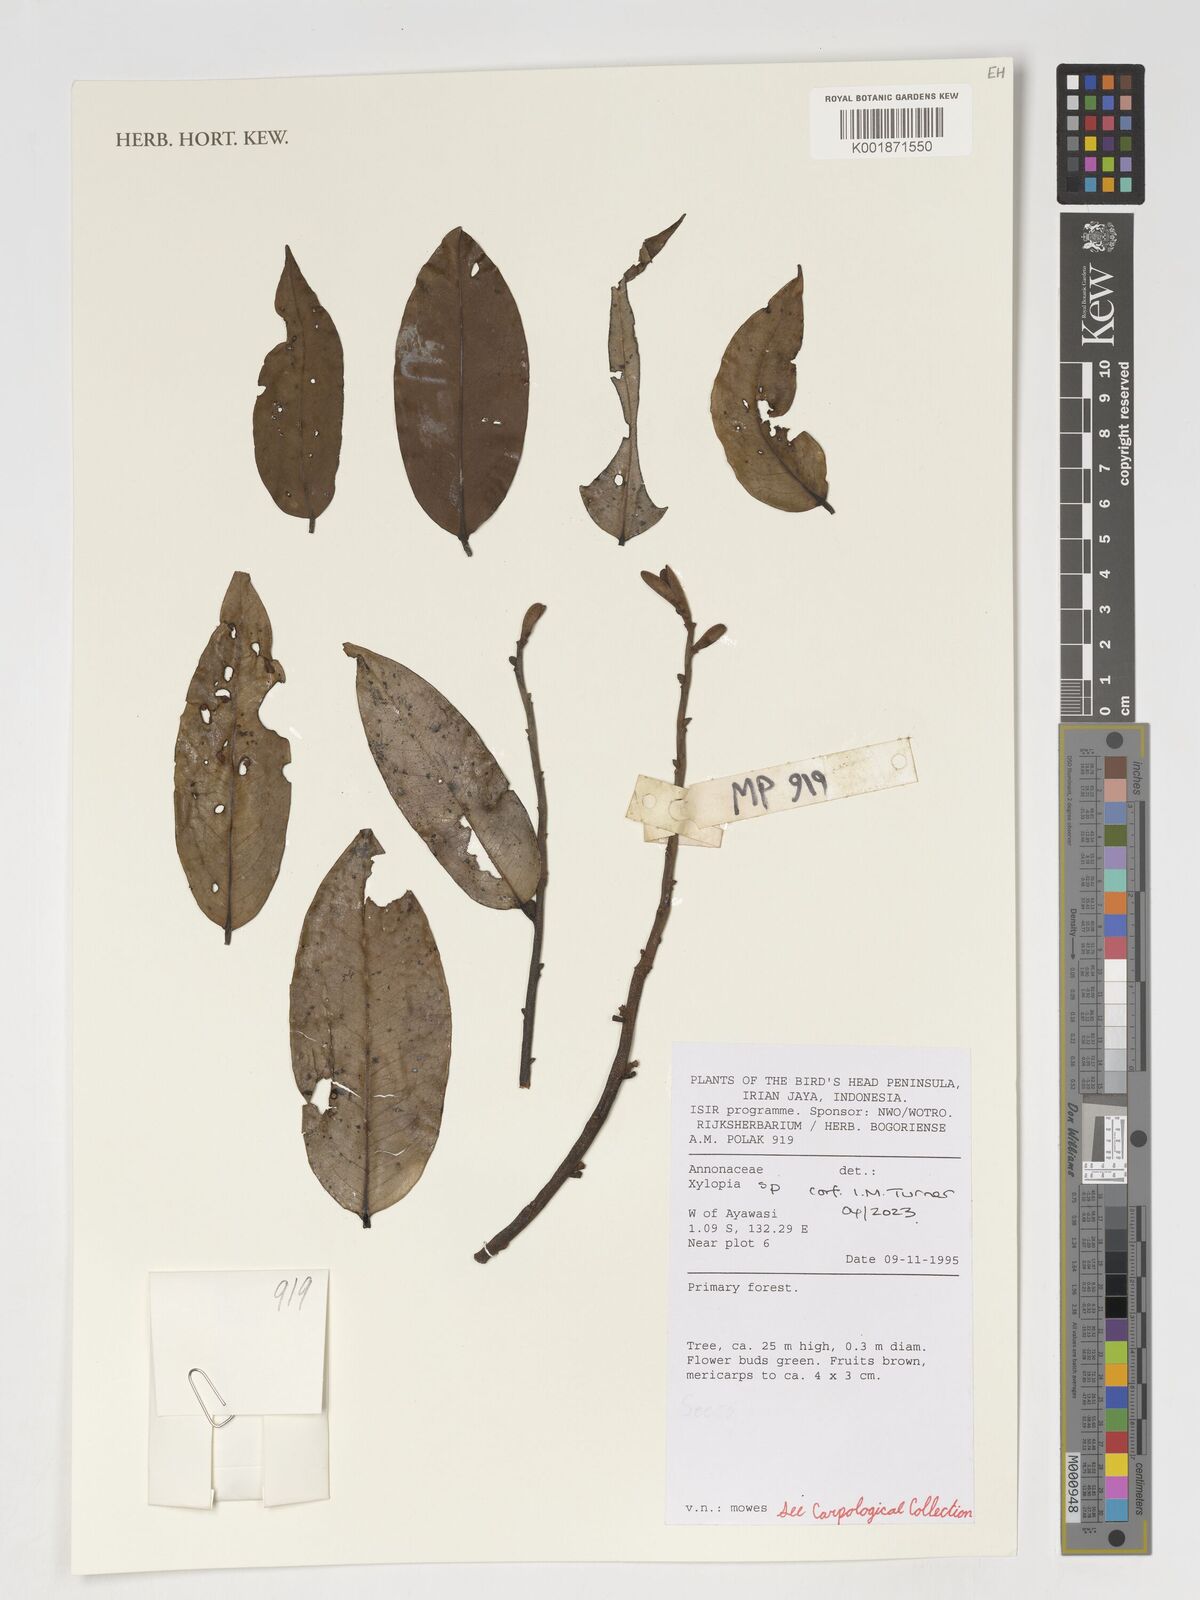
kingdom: Plantae
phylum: Tracheophyta
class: Magnoliopsida
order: Magnoliales
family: Annonaceae
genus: Xylopia
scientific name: Xylopia
